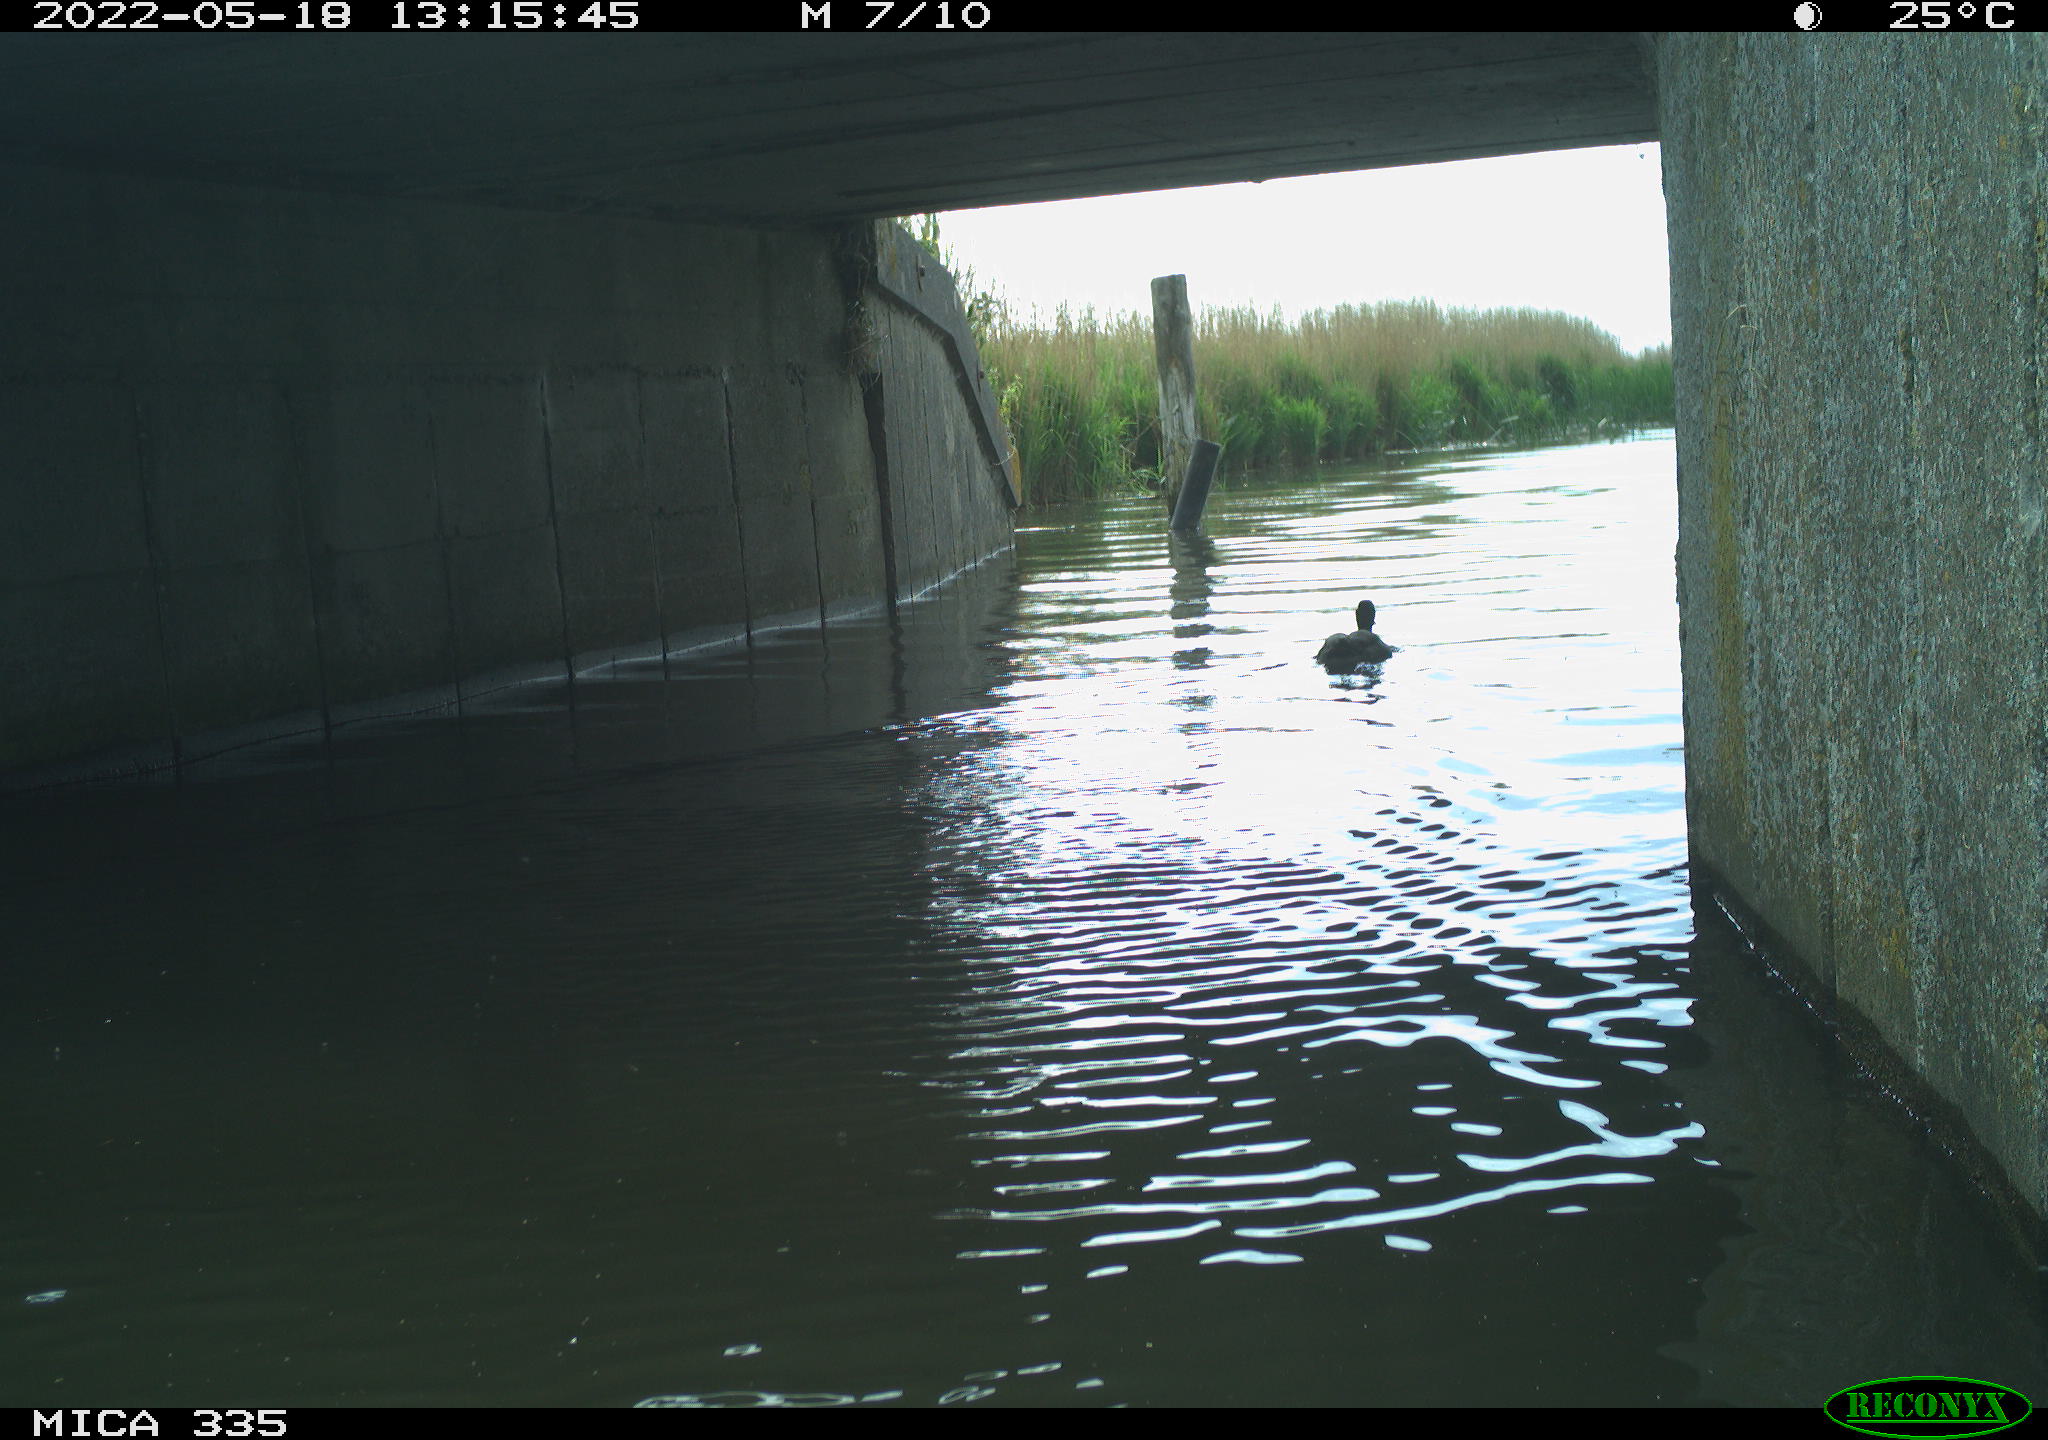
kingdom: Animalia
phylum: Chordata
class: Aves
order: Anseriformes
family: Anatidae
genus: Anas
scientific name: Anas platyrhynchos
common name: Mallard
